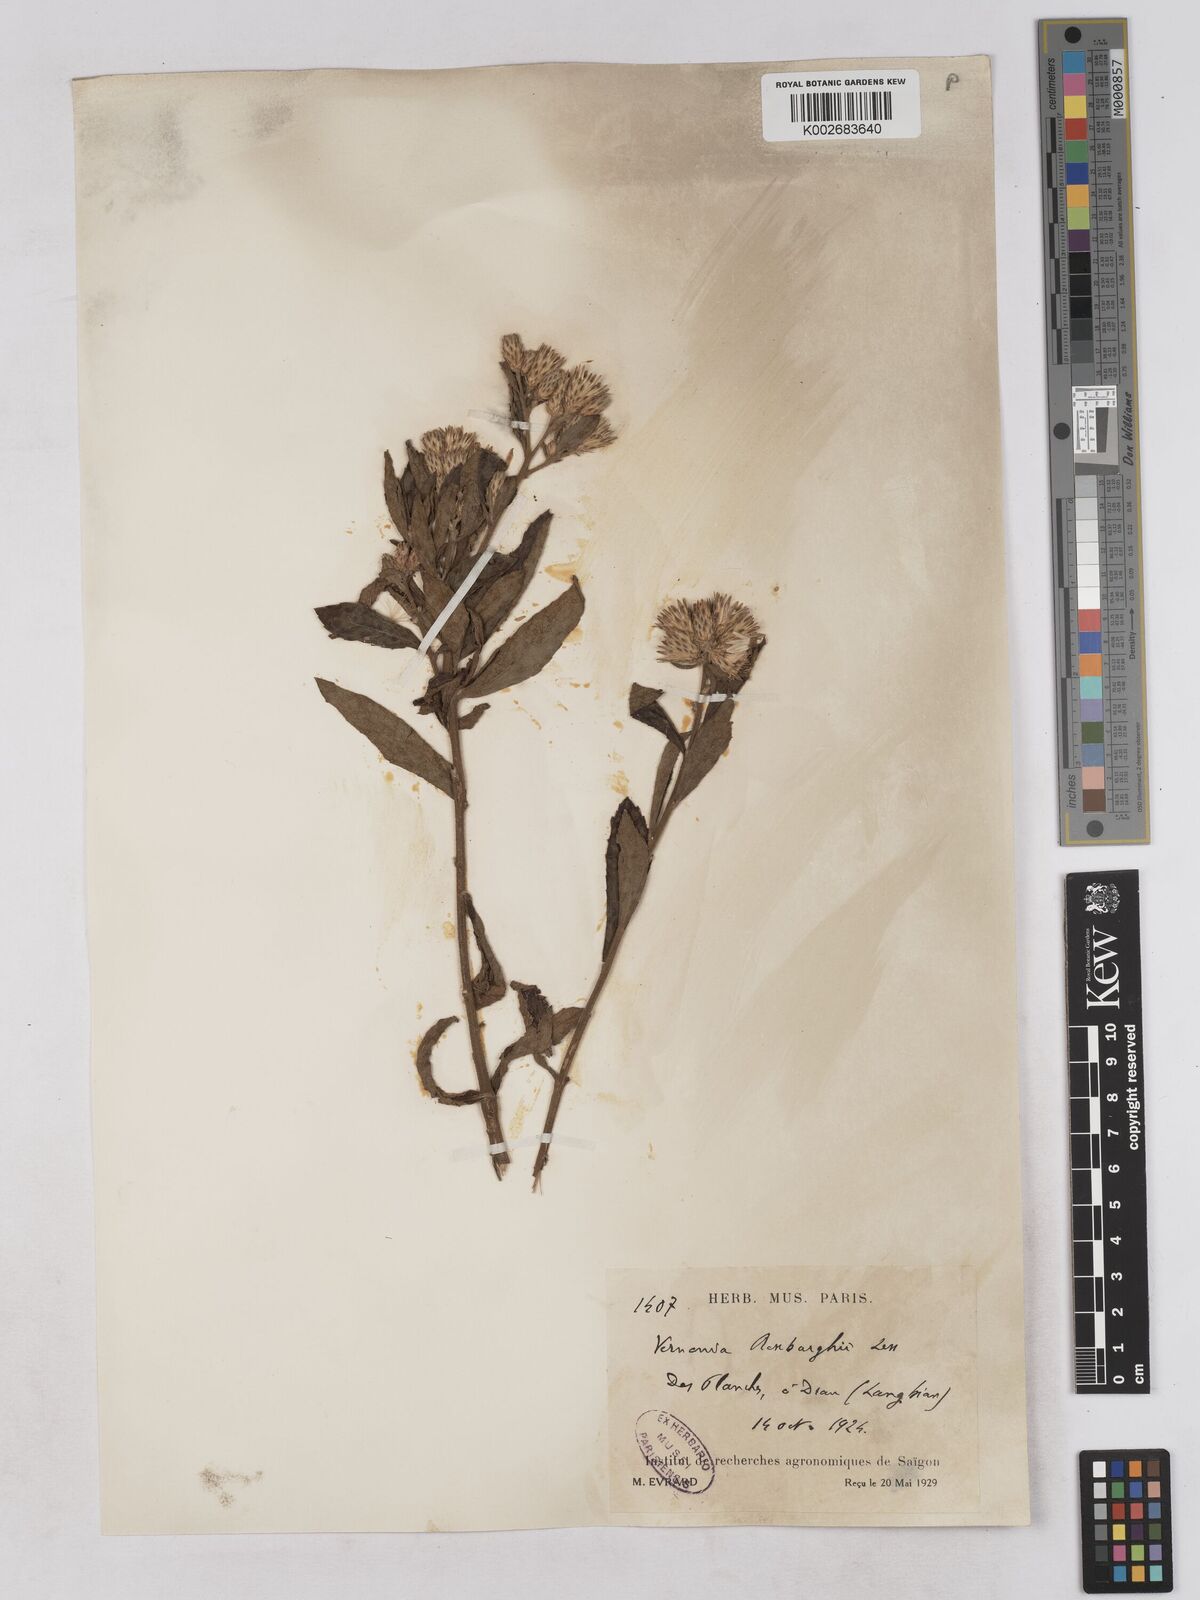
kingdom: Plantae
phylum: Tracheophyta
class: Magnoliopsida
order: Asterales
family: Asteraceae
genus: Acilepis
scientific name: Acilepis aspera
